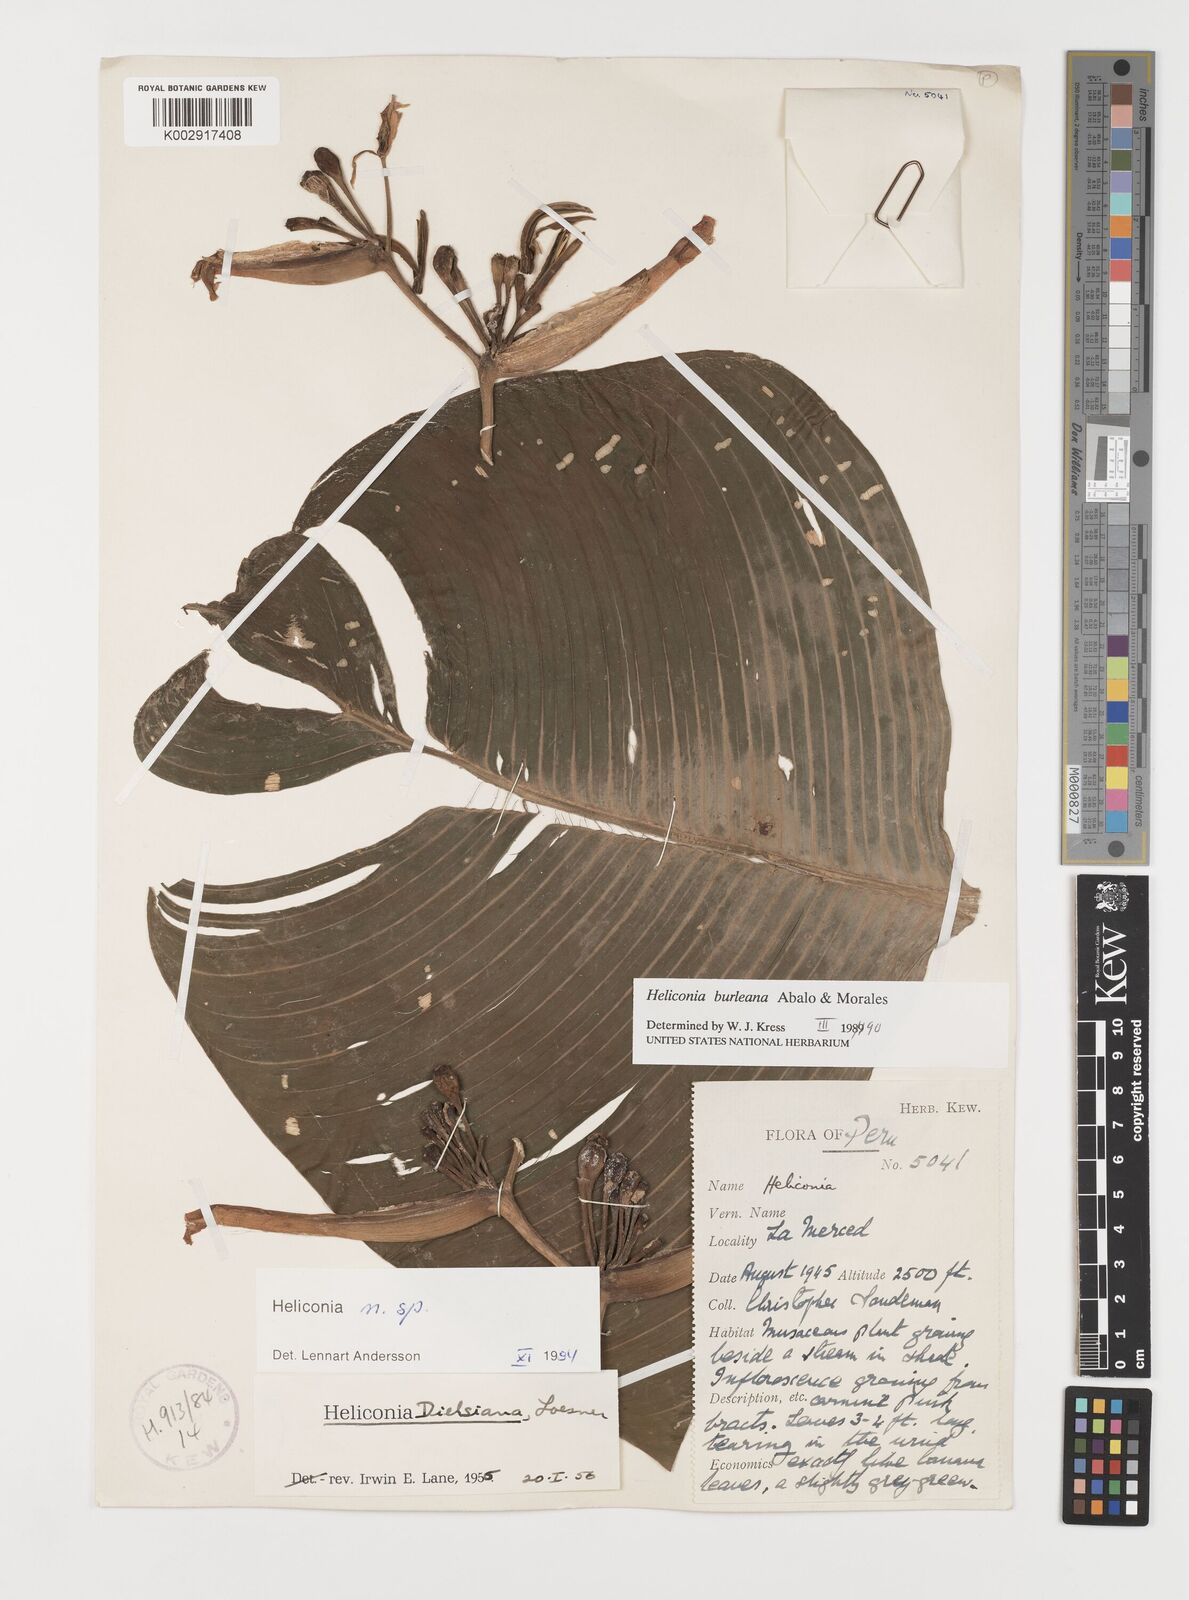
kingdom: Plantae
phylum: Tracheophyta
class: Liliopsida
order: Zingiberales
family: Heliconiaceae
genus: Heliconia
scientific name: Heliconia burleana
